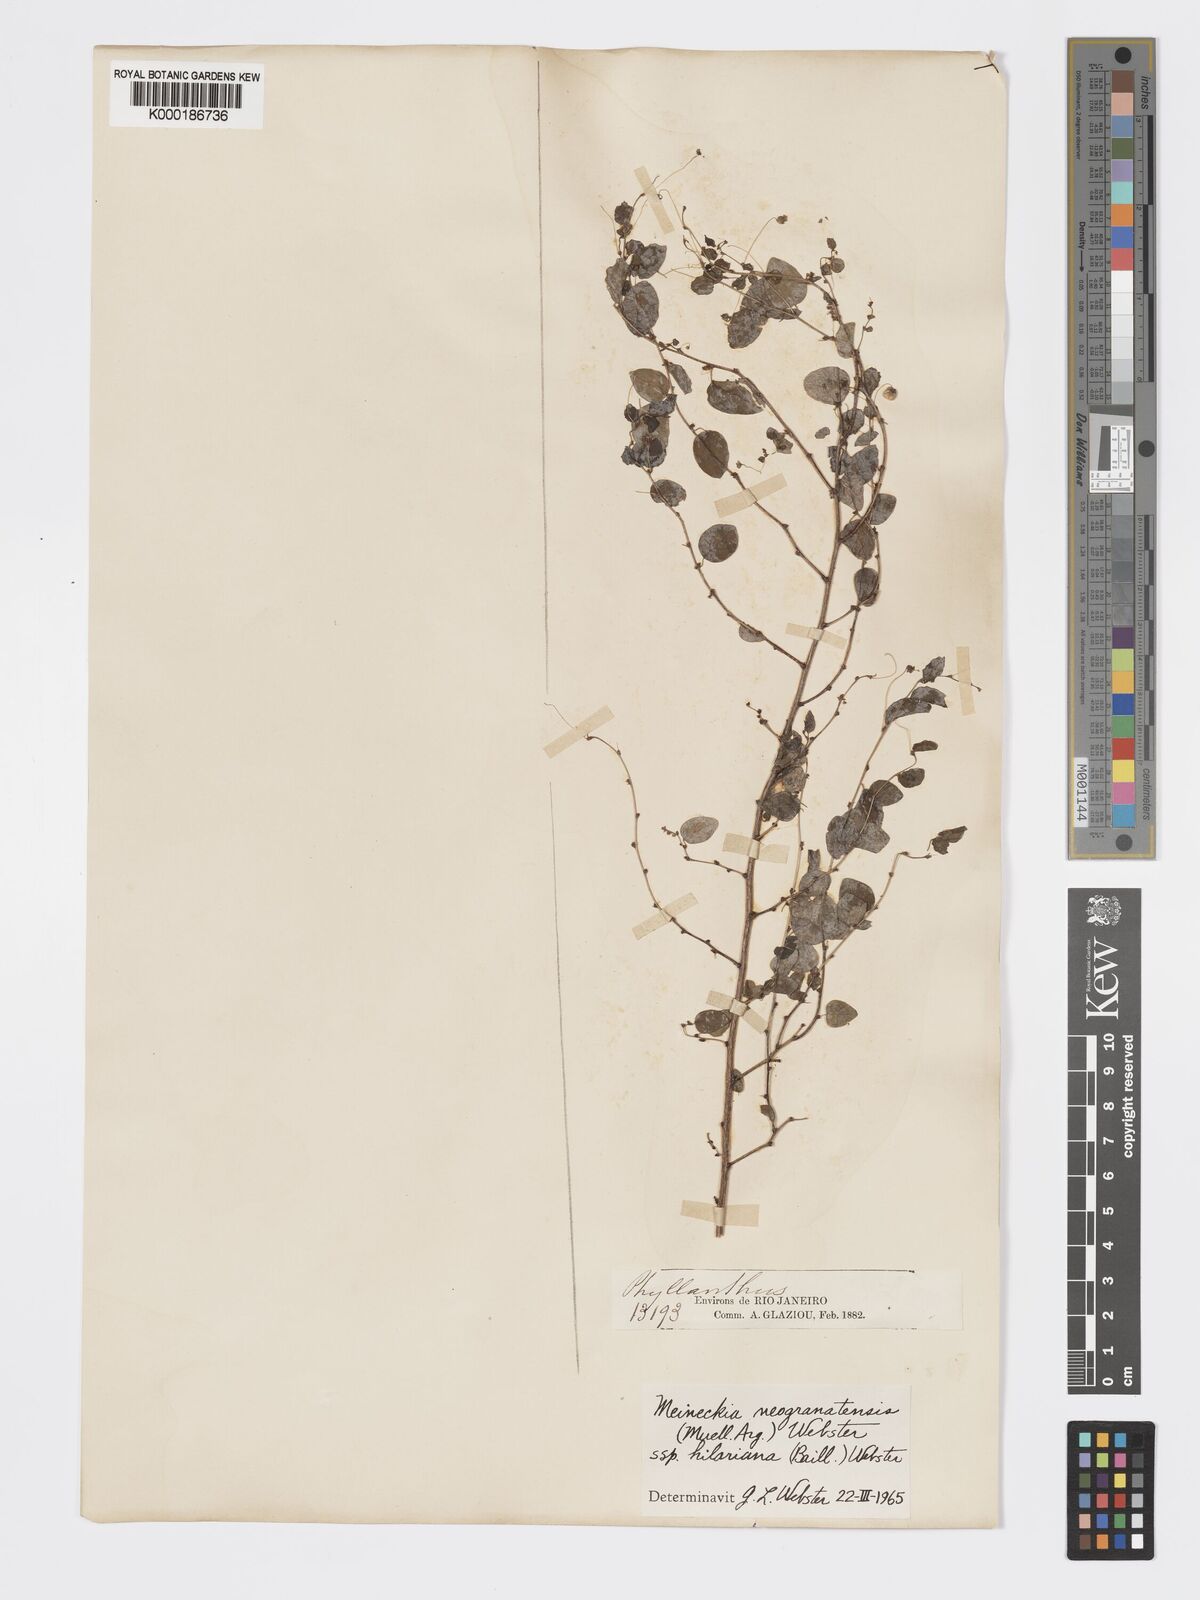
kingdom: Plantae
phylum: Tracheophyta
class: Magnoliopsida
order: Malpighiales
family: Phyllanthaceae
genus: Meineckia
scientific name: Meineckia neogranatensis
